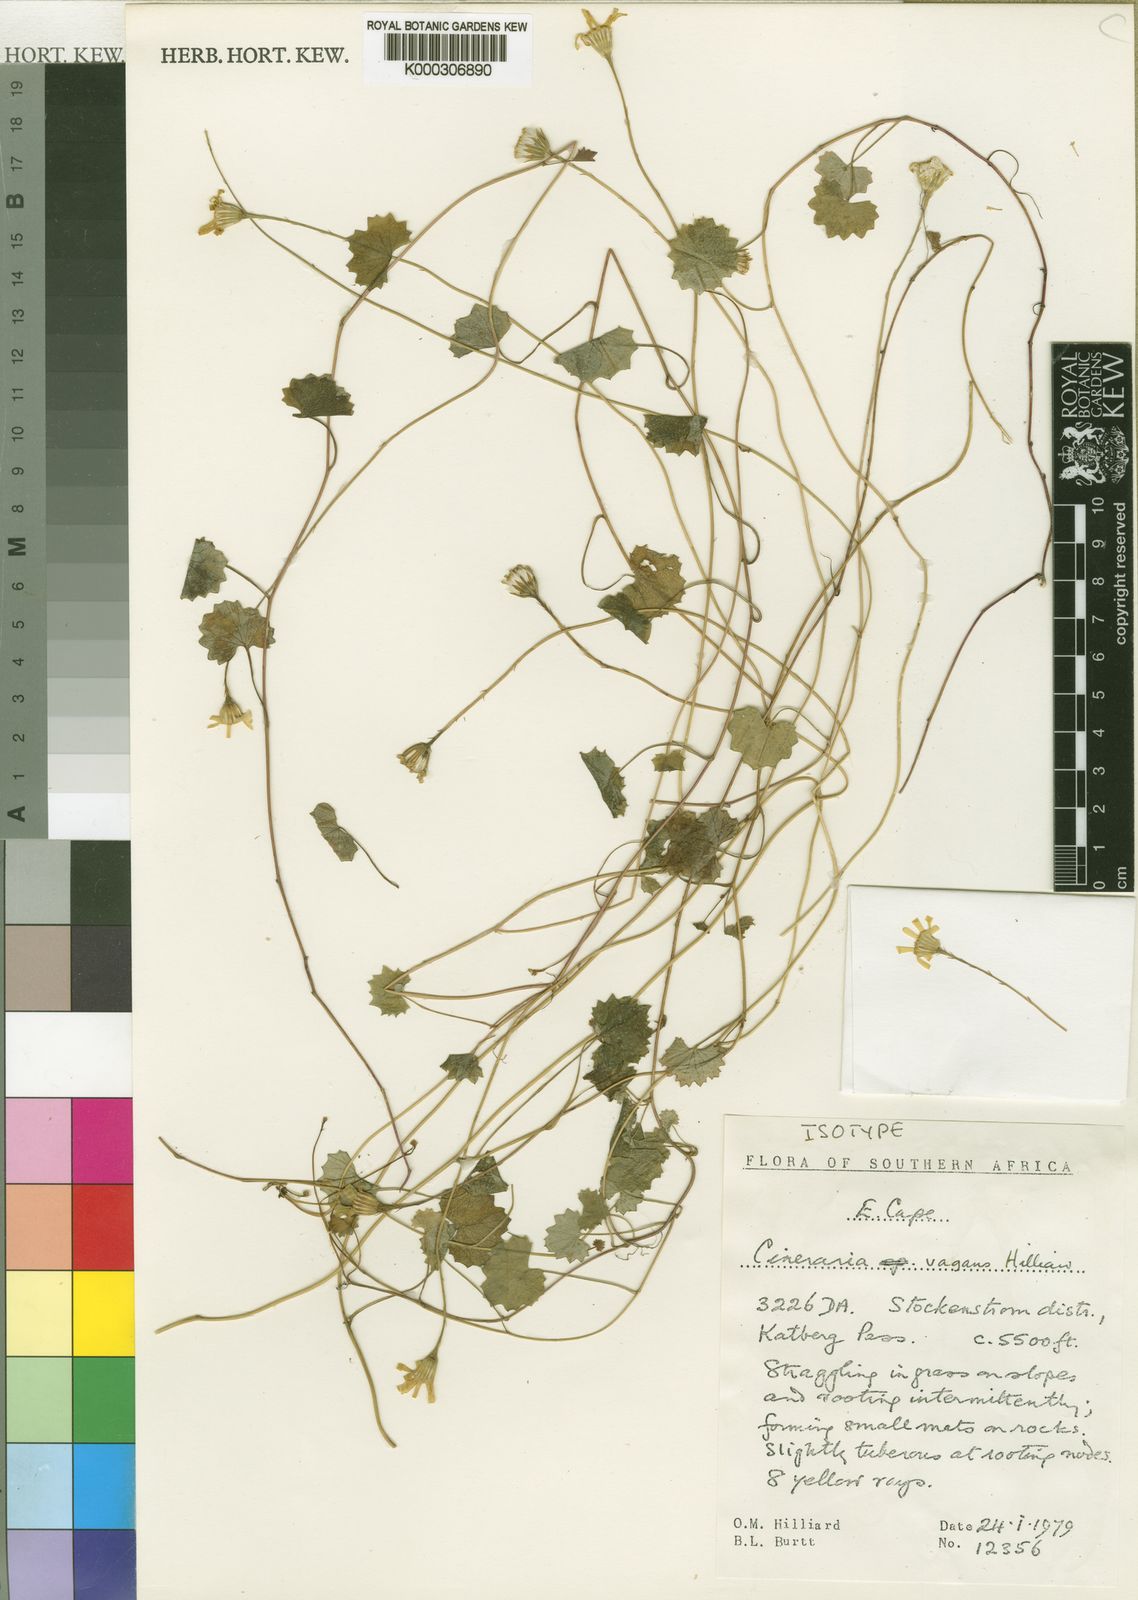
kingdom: Plantae
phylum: Tracheophyta
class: Magnoliopsida
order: Asterales
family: Asteraceae
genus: Cineraria
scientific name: Cineraria vagans
